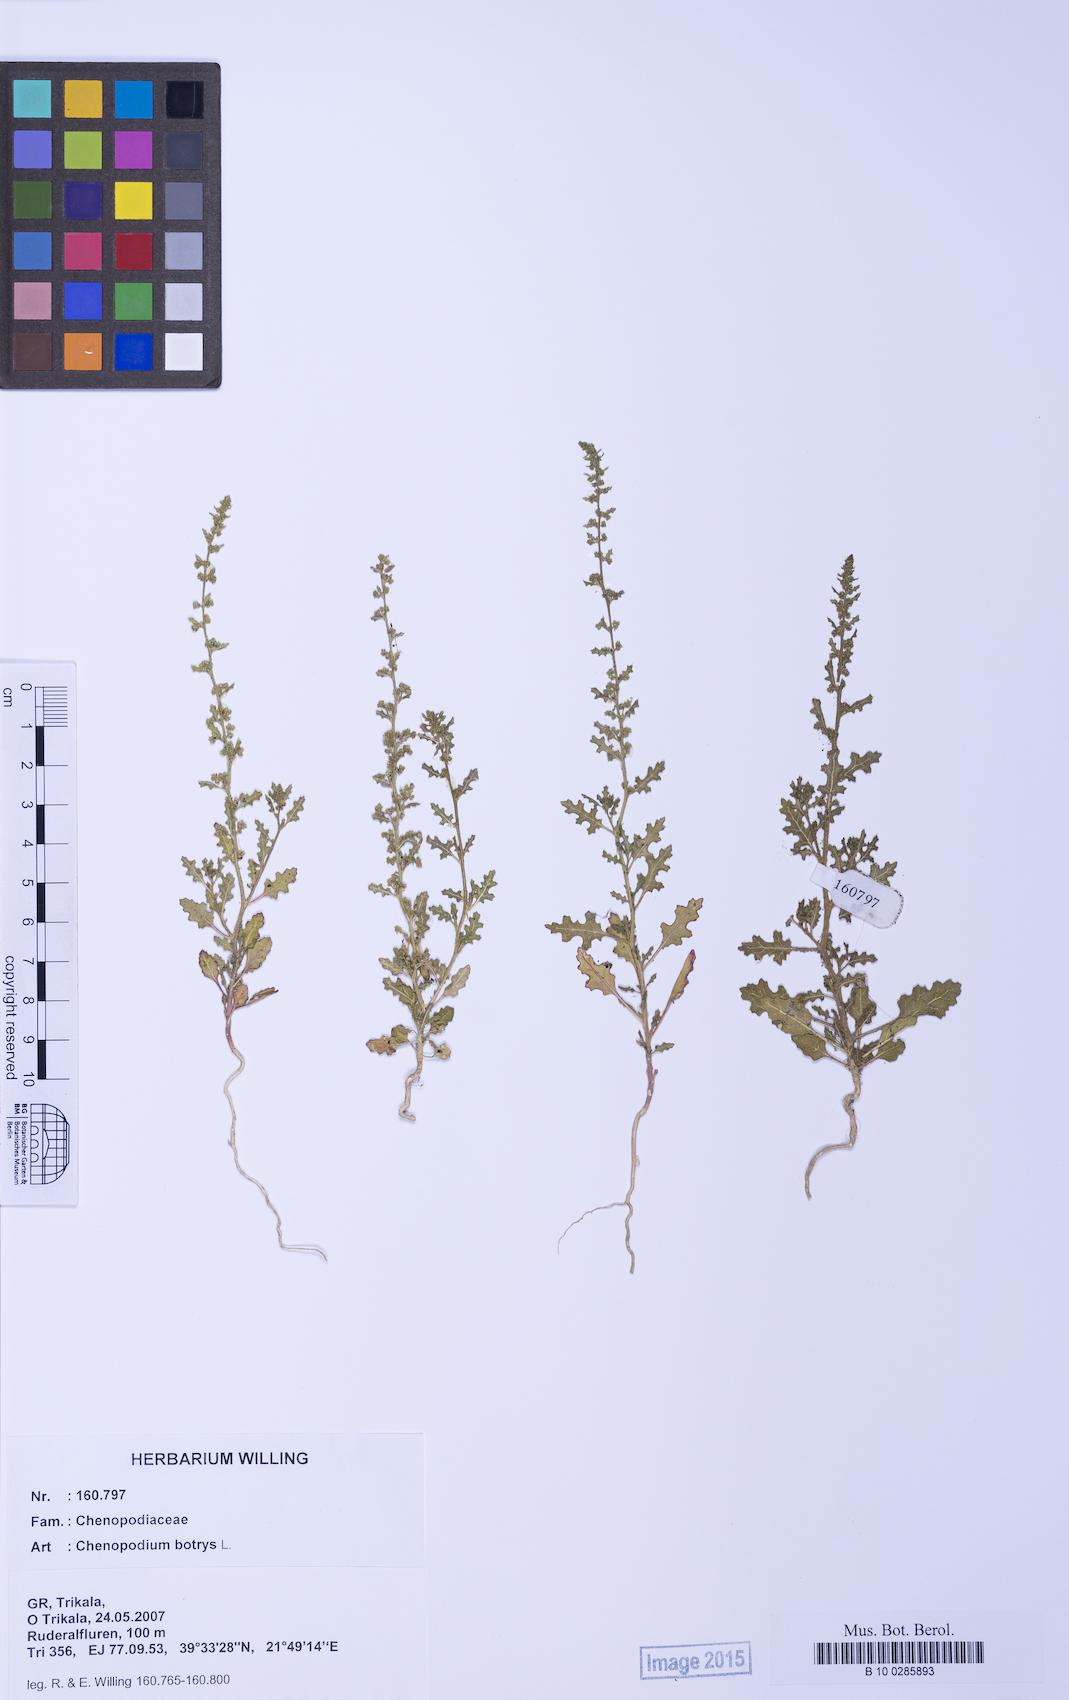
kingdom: Plantae
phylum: Tracheophyta
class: Magnoliopsida
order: Caryophyllales
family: Amaranthaceae
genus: Dysphania
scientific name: Dysphania botrys
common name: Feather-geranium
